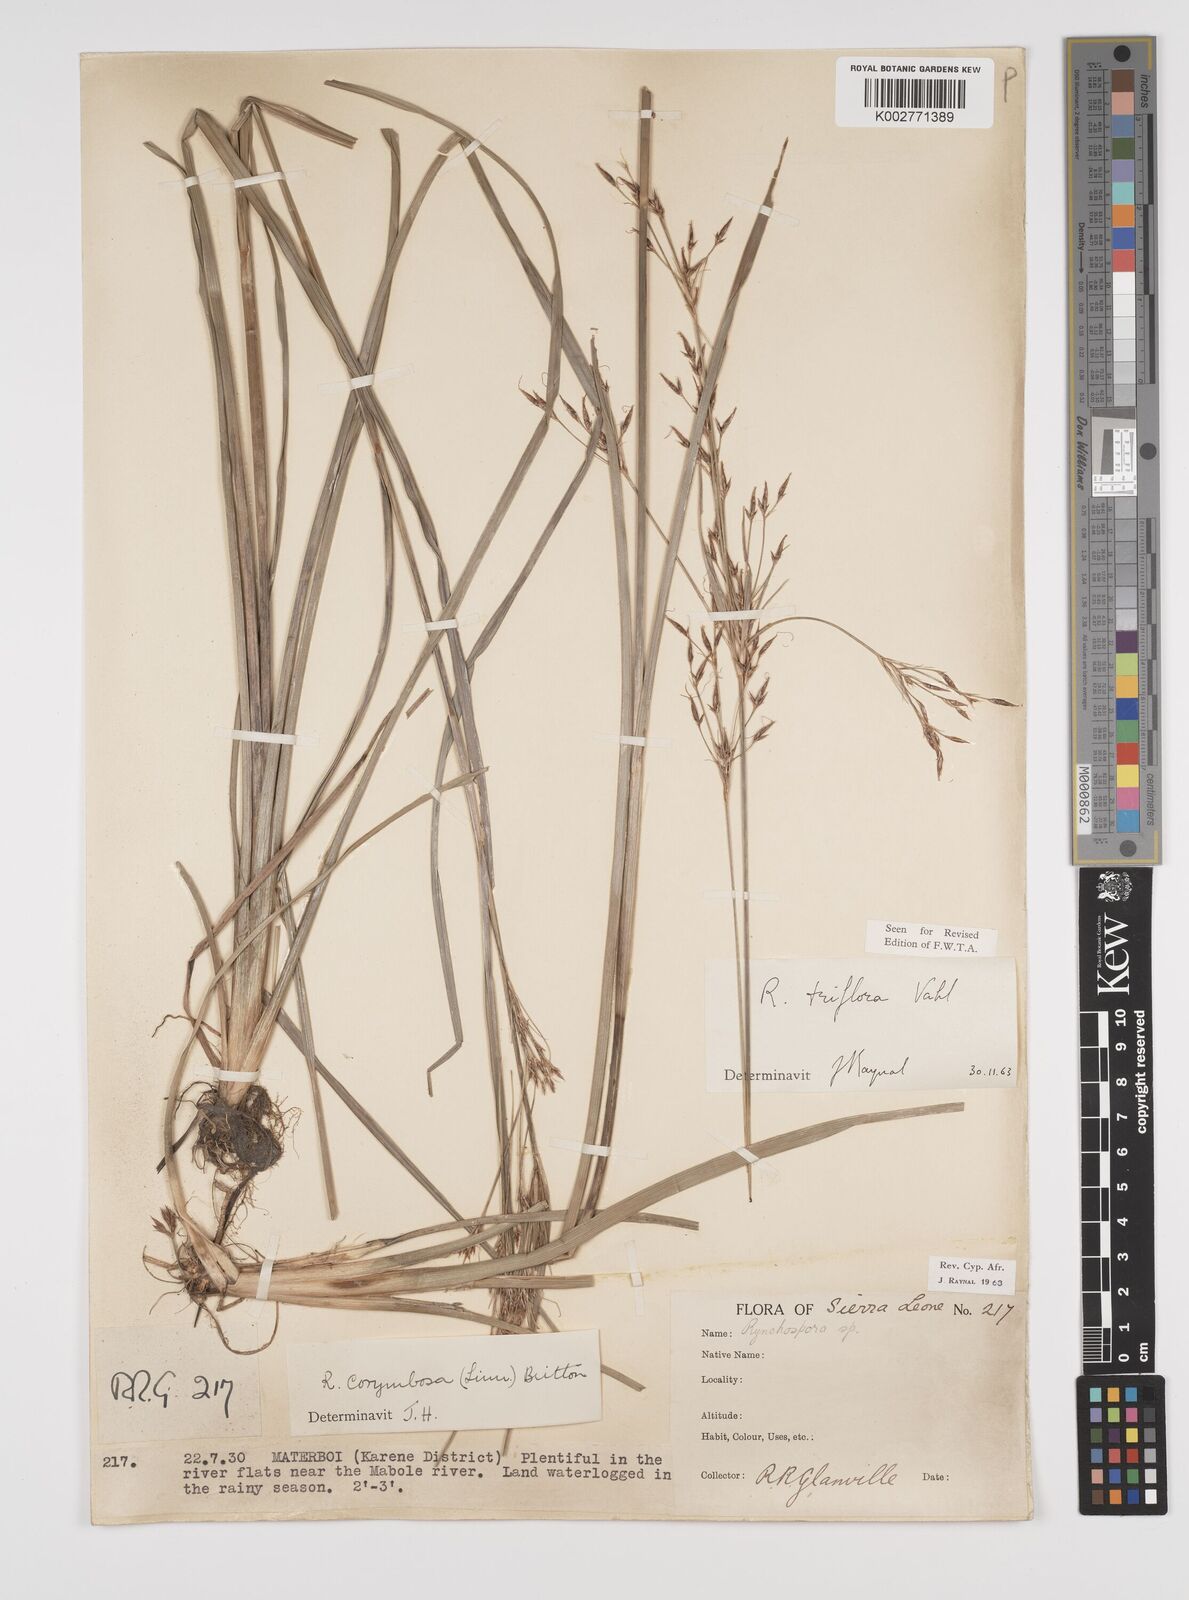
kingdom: Plantae
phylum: Tracheophyta
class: Liliopsida
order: Poales
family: Cyperaceae
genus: Rhynchospora
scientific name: Rhynchospora triflora
